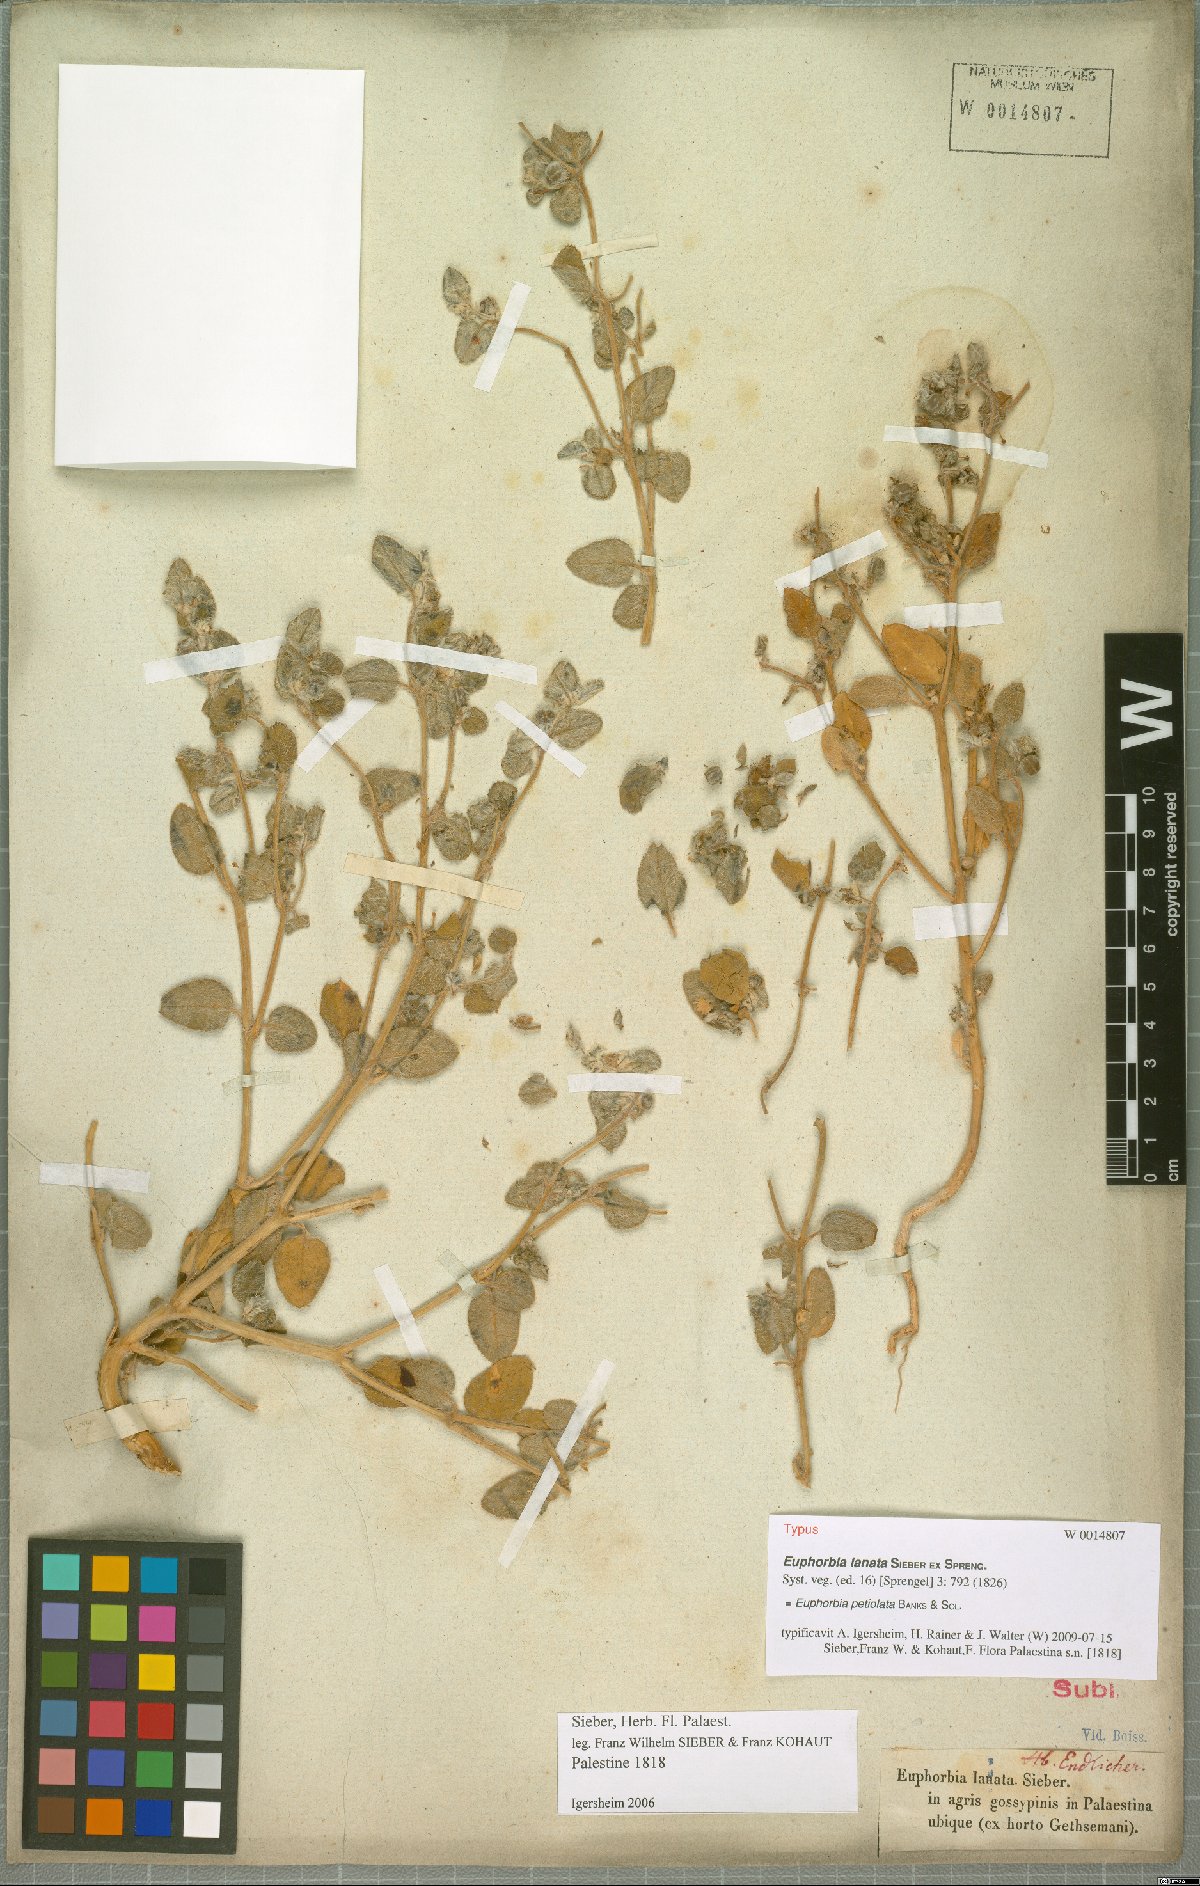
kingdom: Plantae
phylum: Tracheophyta
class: Magnoliopsida
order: Malpighiales
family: Euphorbiaceae
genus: Euphorbia
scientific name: Euphorbia petiolata
